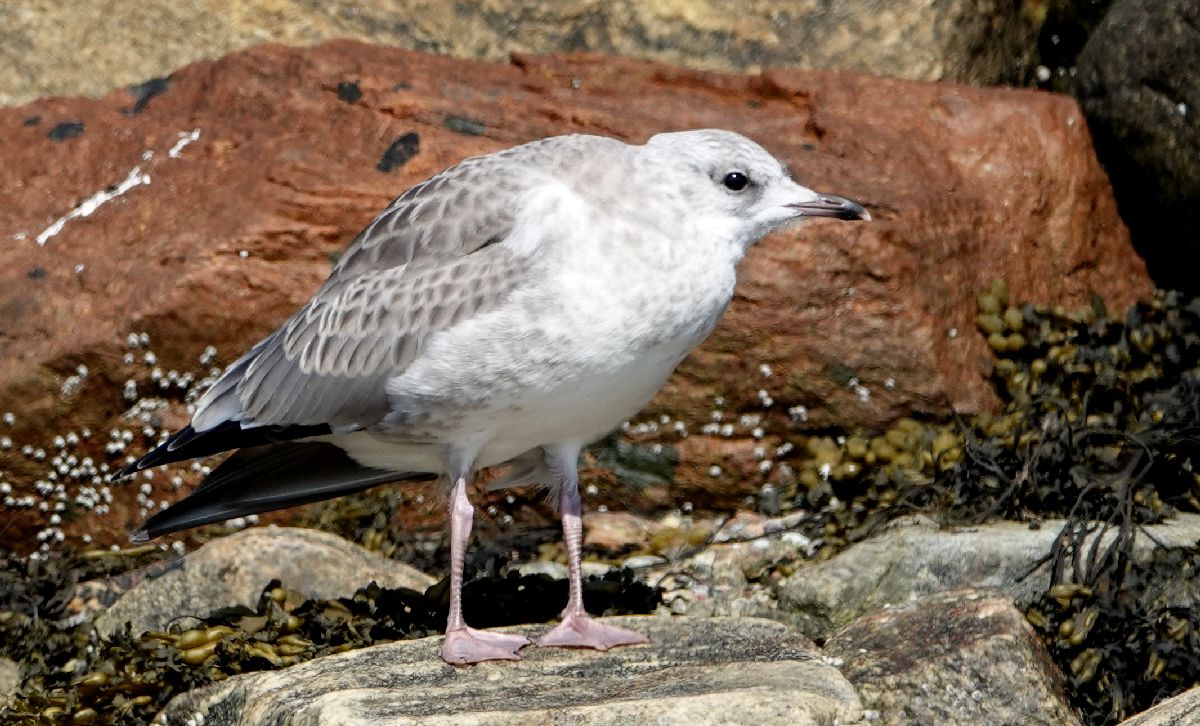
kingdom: Animalia
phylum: Chordata
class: Aves
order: Charadriiformes
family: Laridae
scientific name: Laridae
